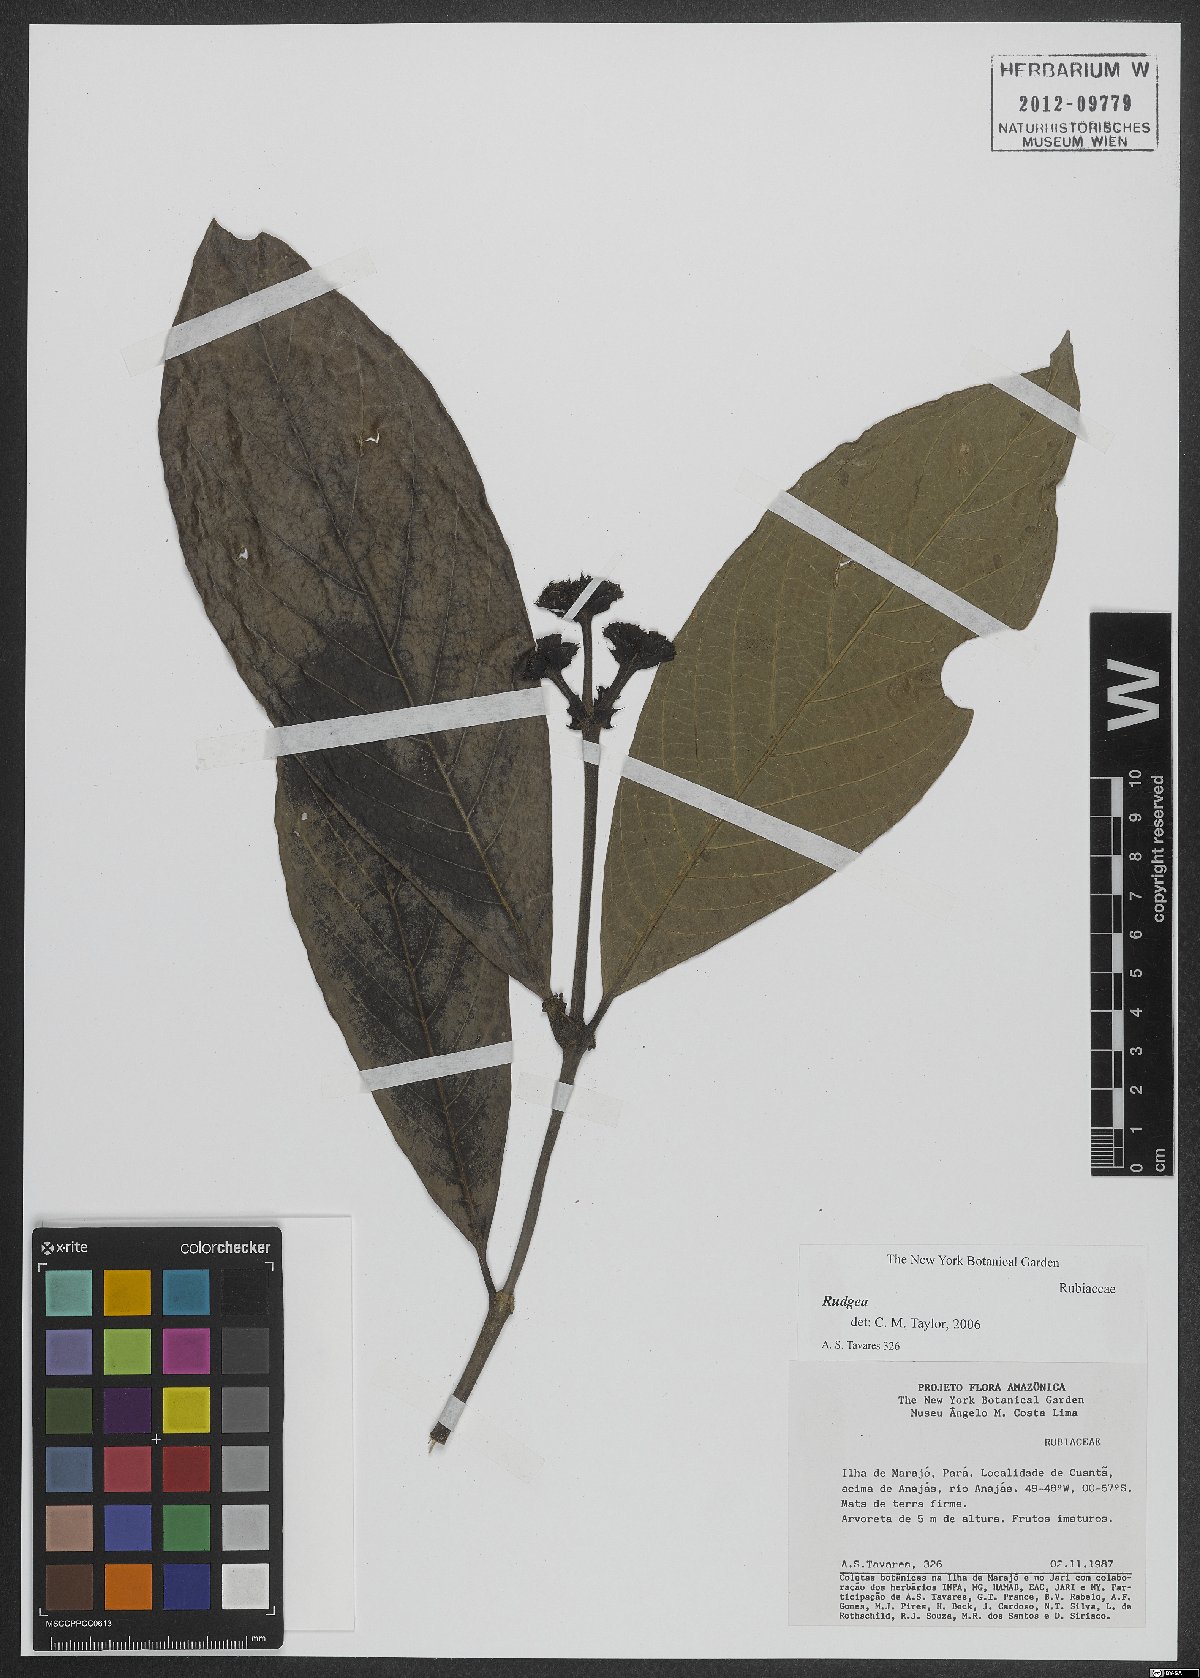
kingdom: Plantae
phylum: Tracheophyta
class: Magnoliopsida
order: Gentianales
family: Rubiaceae
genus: Rudgea
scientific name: Rudgea
